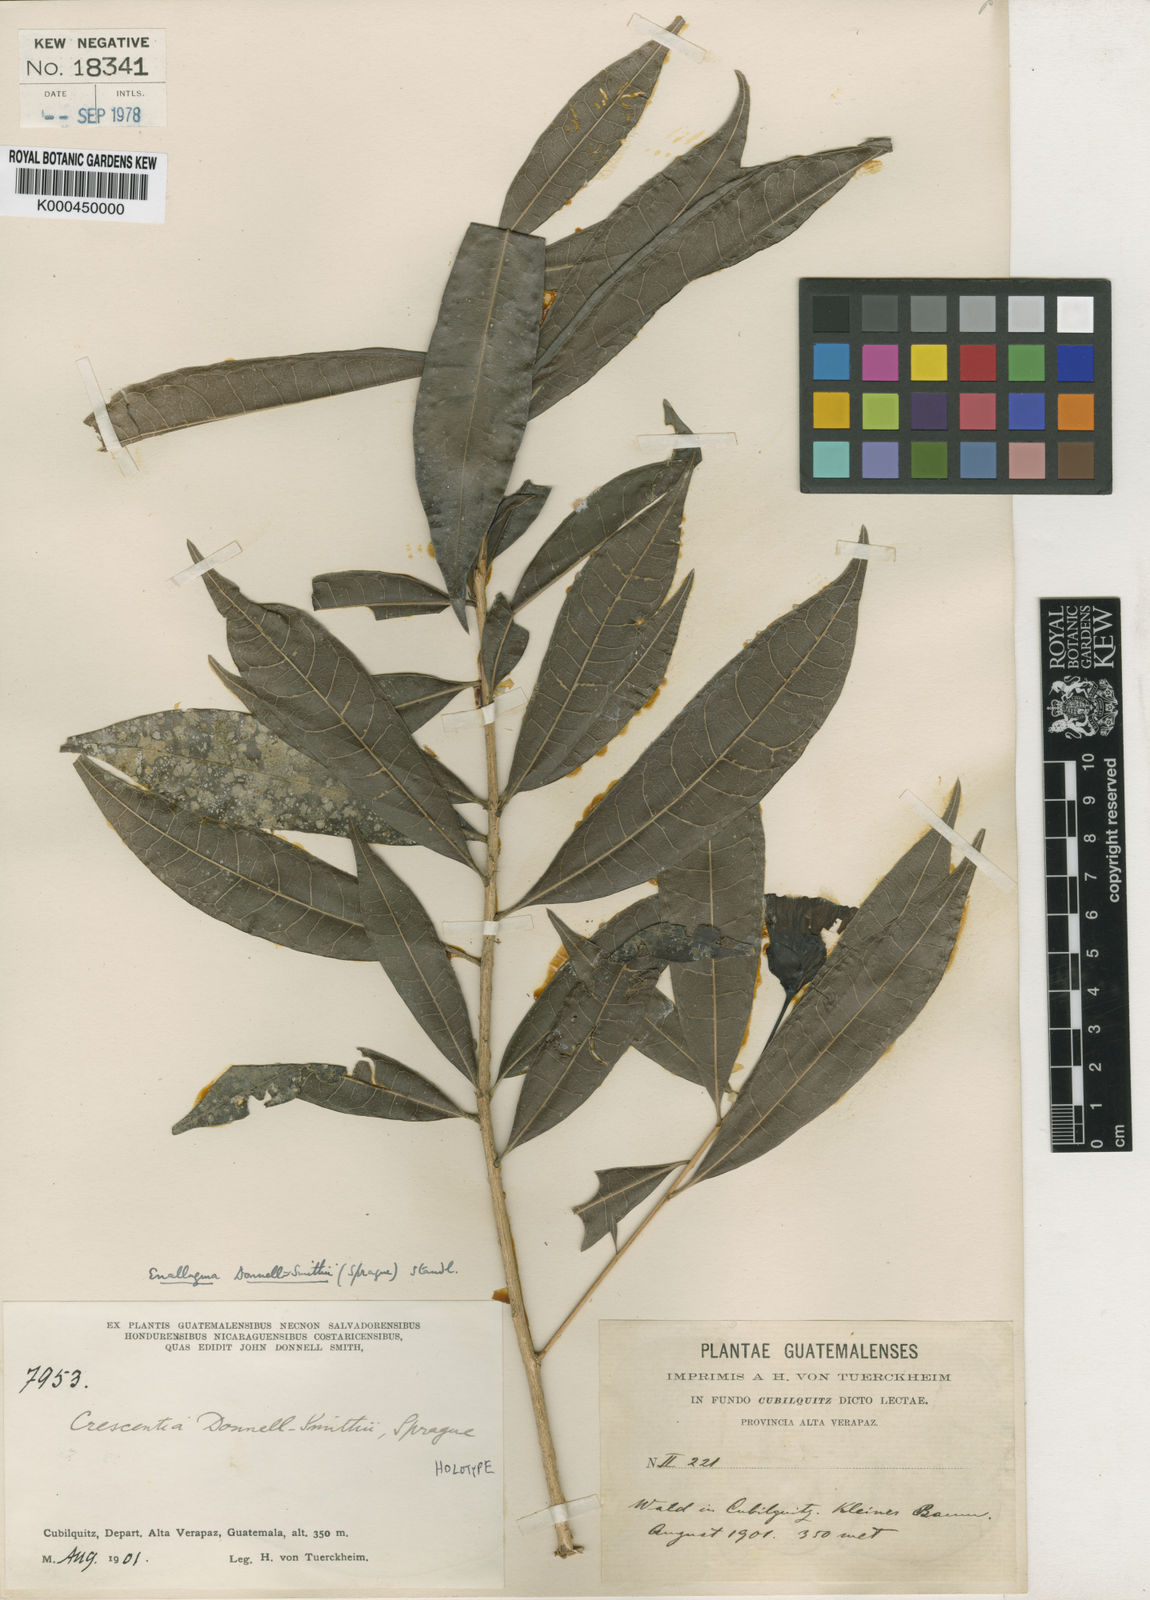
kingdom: Plantae
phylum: Tracheophyta
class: Magnoliopsida
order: Lamiales
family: Bignoniaceae
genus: Amphitecna
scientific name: Amphitecna donnell-smithii
